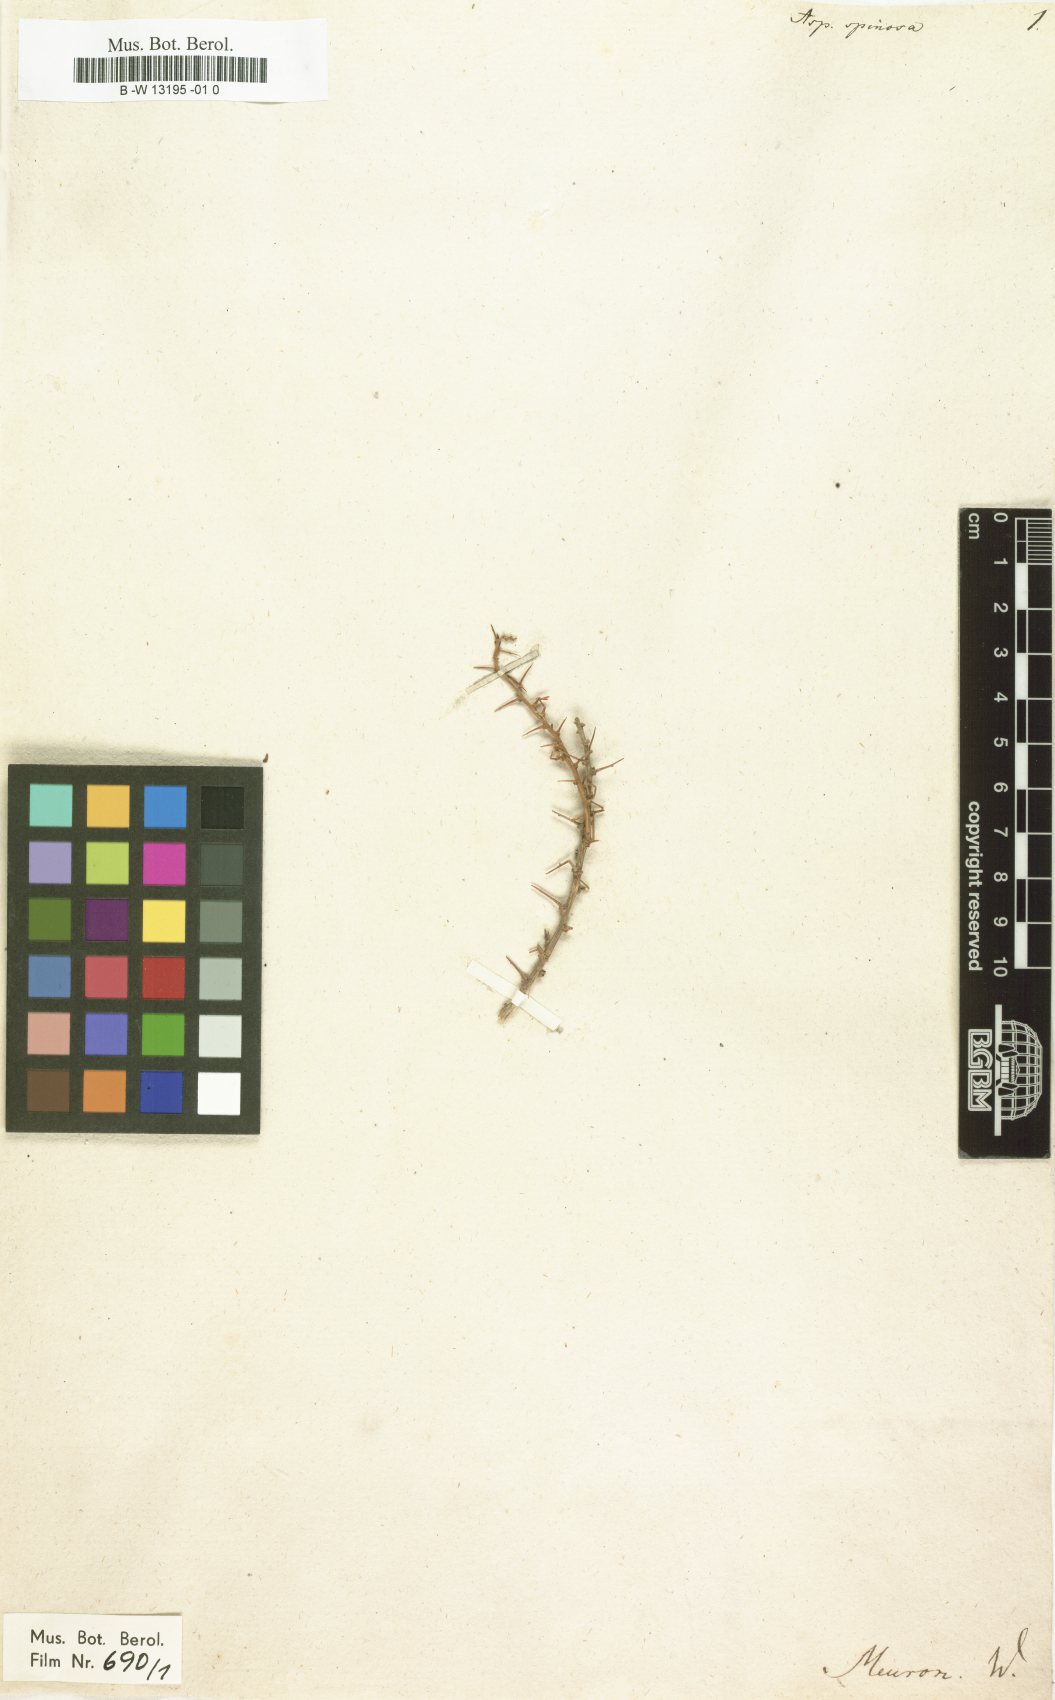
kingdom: Plantae
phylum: Tracheophyta
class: Magnoliopsida
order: Fabales
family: Fabaceae
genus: Aspalathus
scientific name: Aspalathus spinosa
